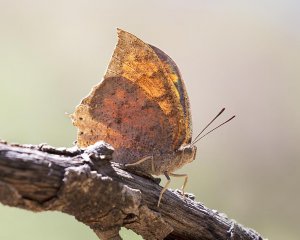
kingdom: Animalia
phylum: Arthropoda
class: Insecta
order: Lepidoptera
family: Nymphalidae
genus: Anaea
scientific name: Anaea aidea
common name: Tropical Leafwing
